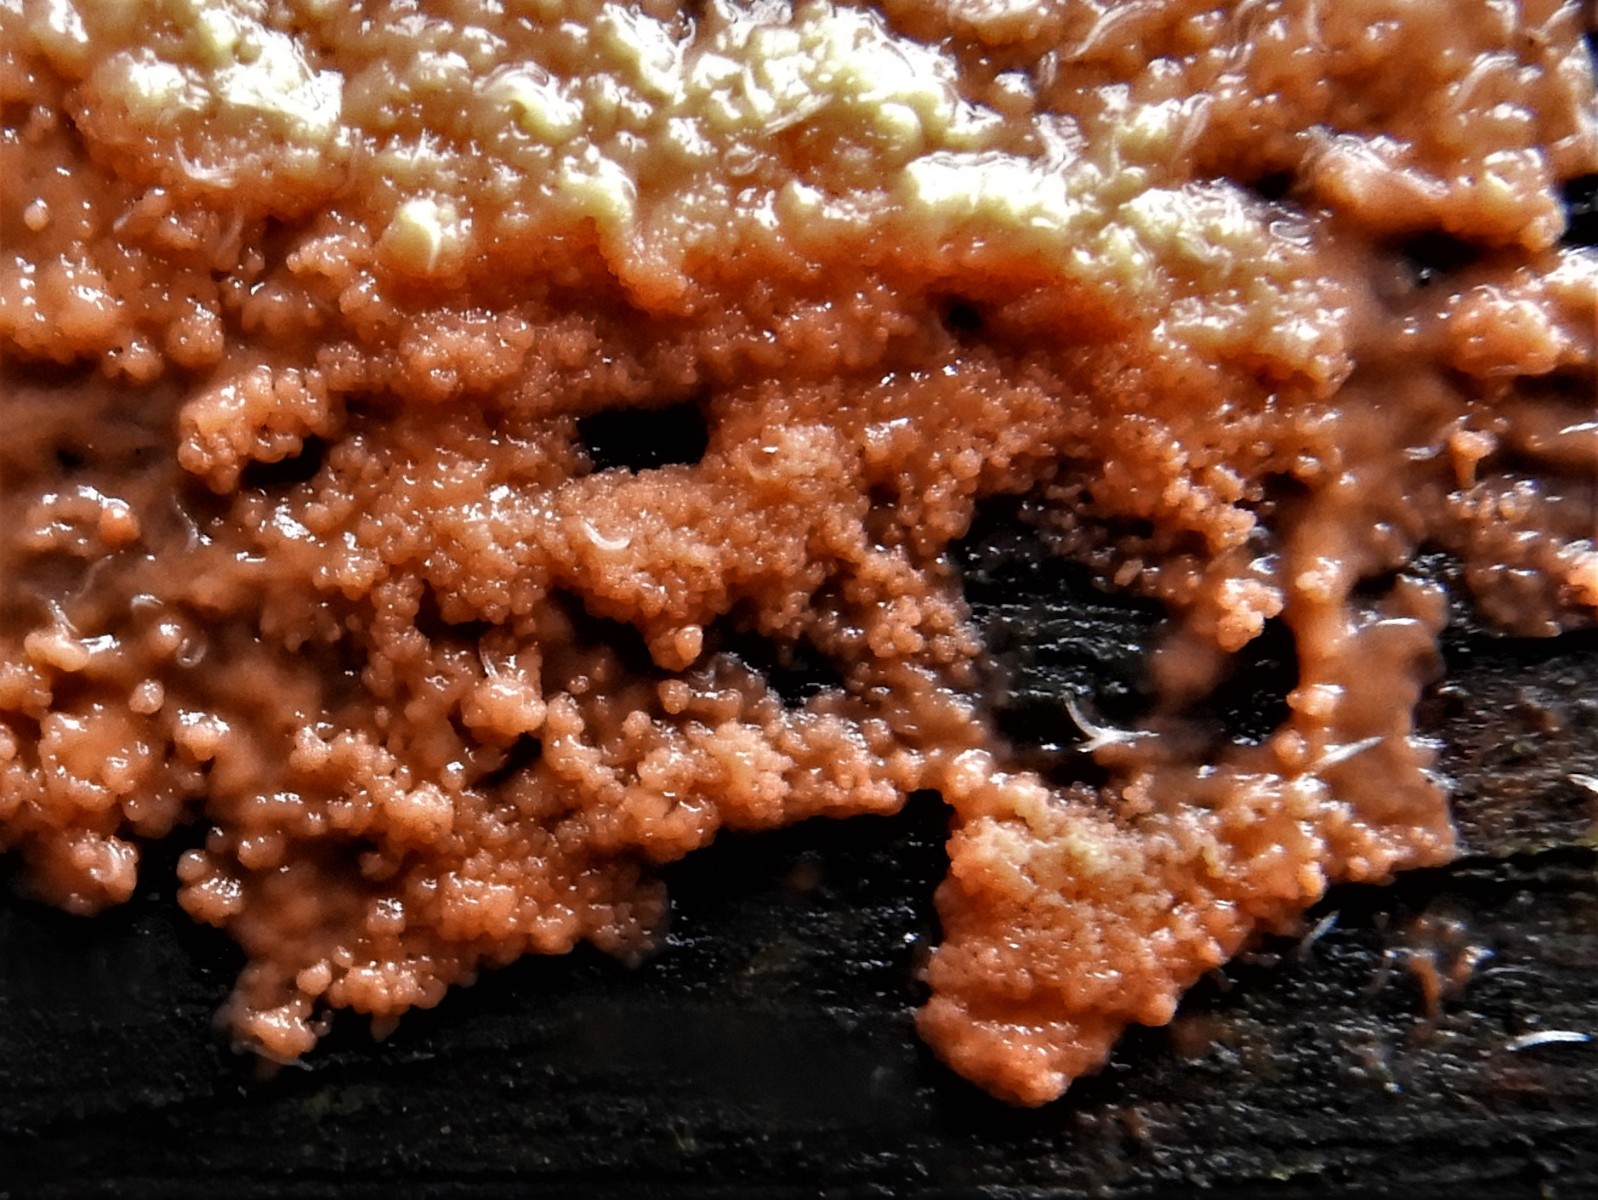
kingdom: Protozoa
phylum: Mycetozoa
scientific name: Mycetozoa
